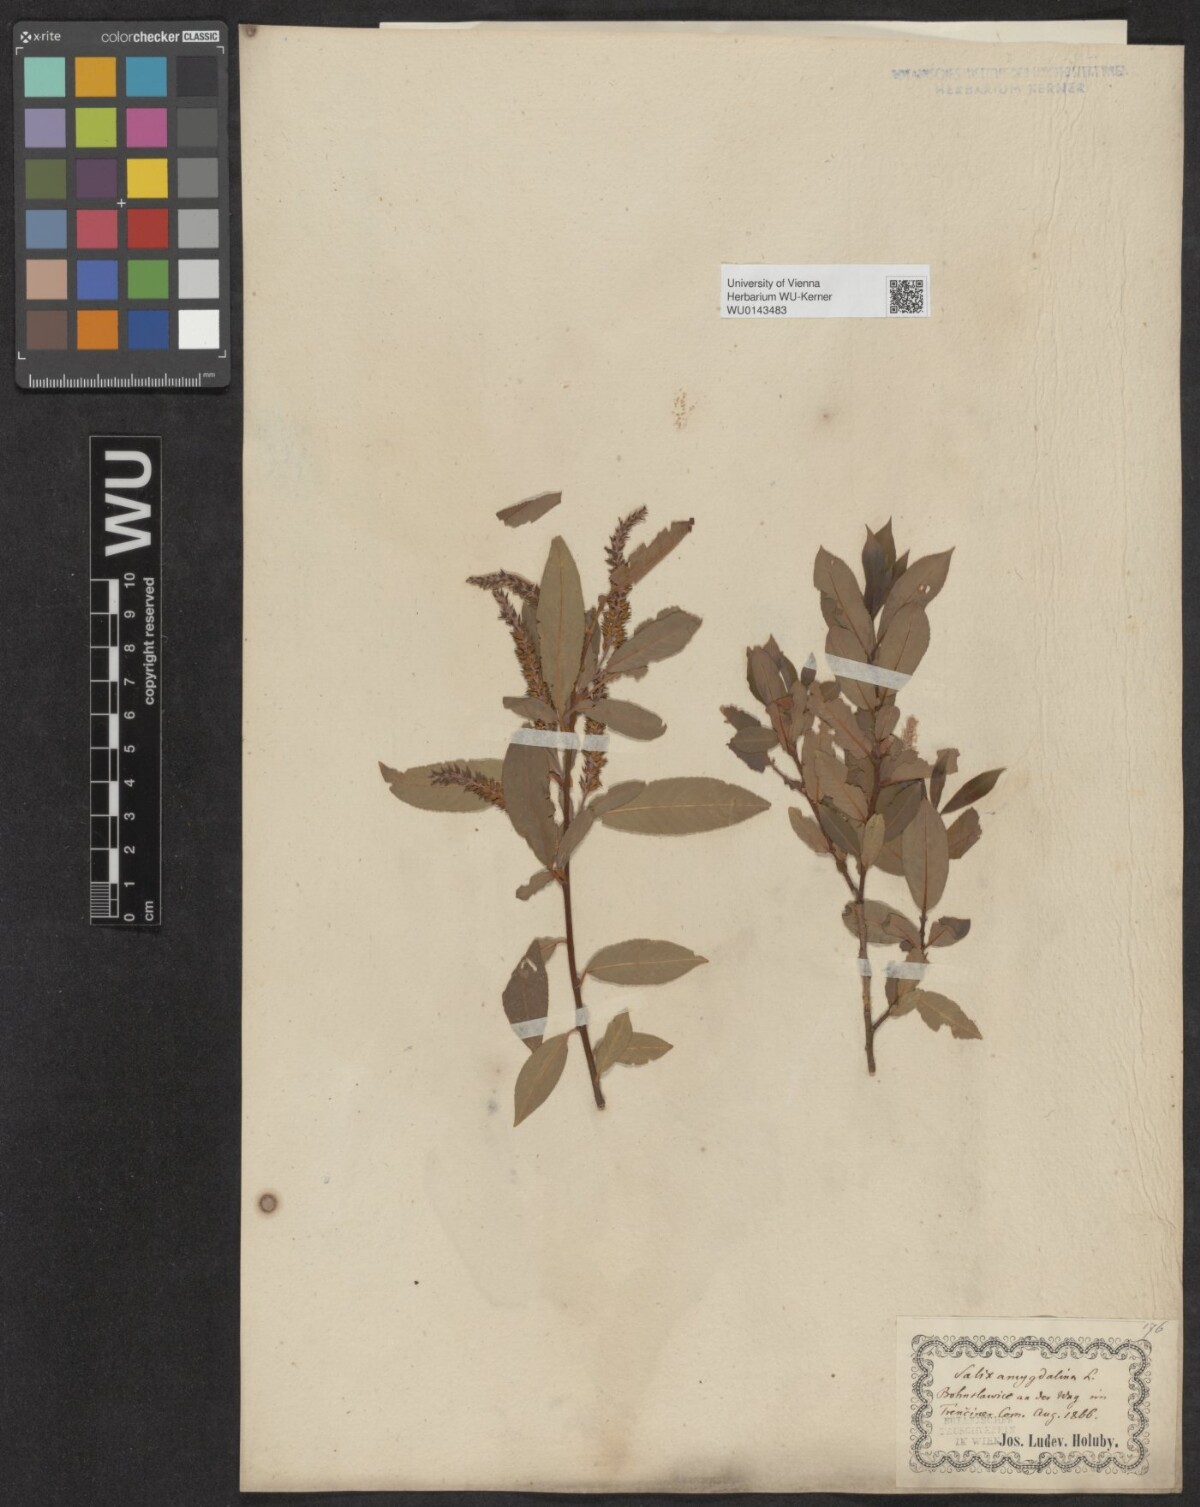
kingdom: Plantae
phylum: Tracheophyta
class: Magnoliopsida
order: Malpighiales
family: Salicaceae
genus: Salix
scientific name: Salix triandra
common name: Almond willow
